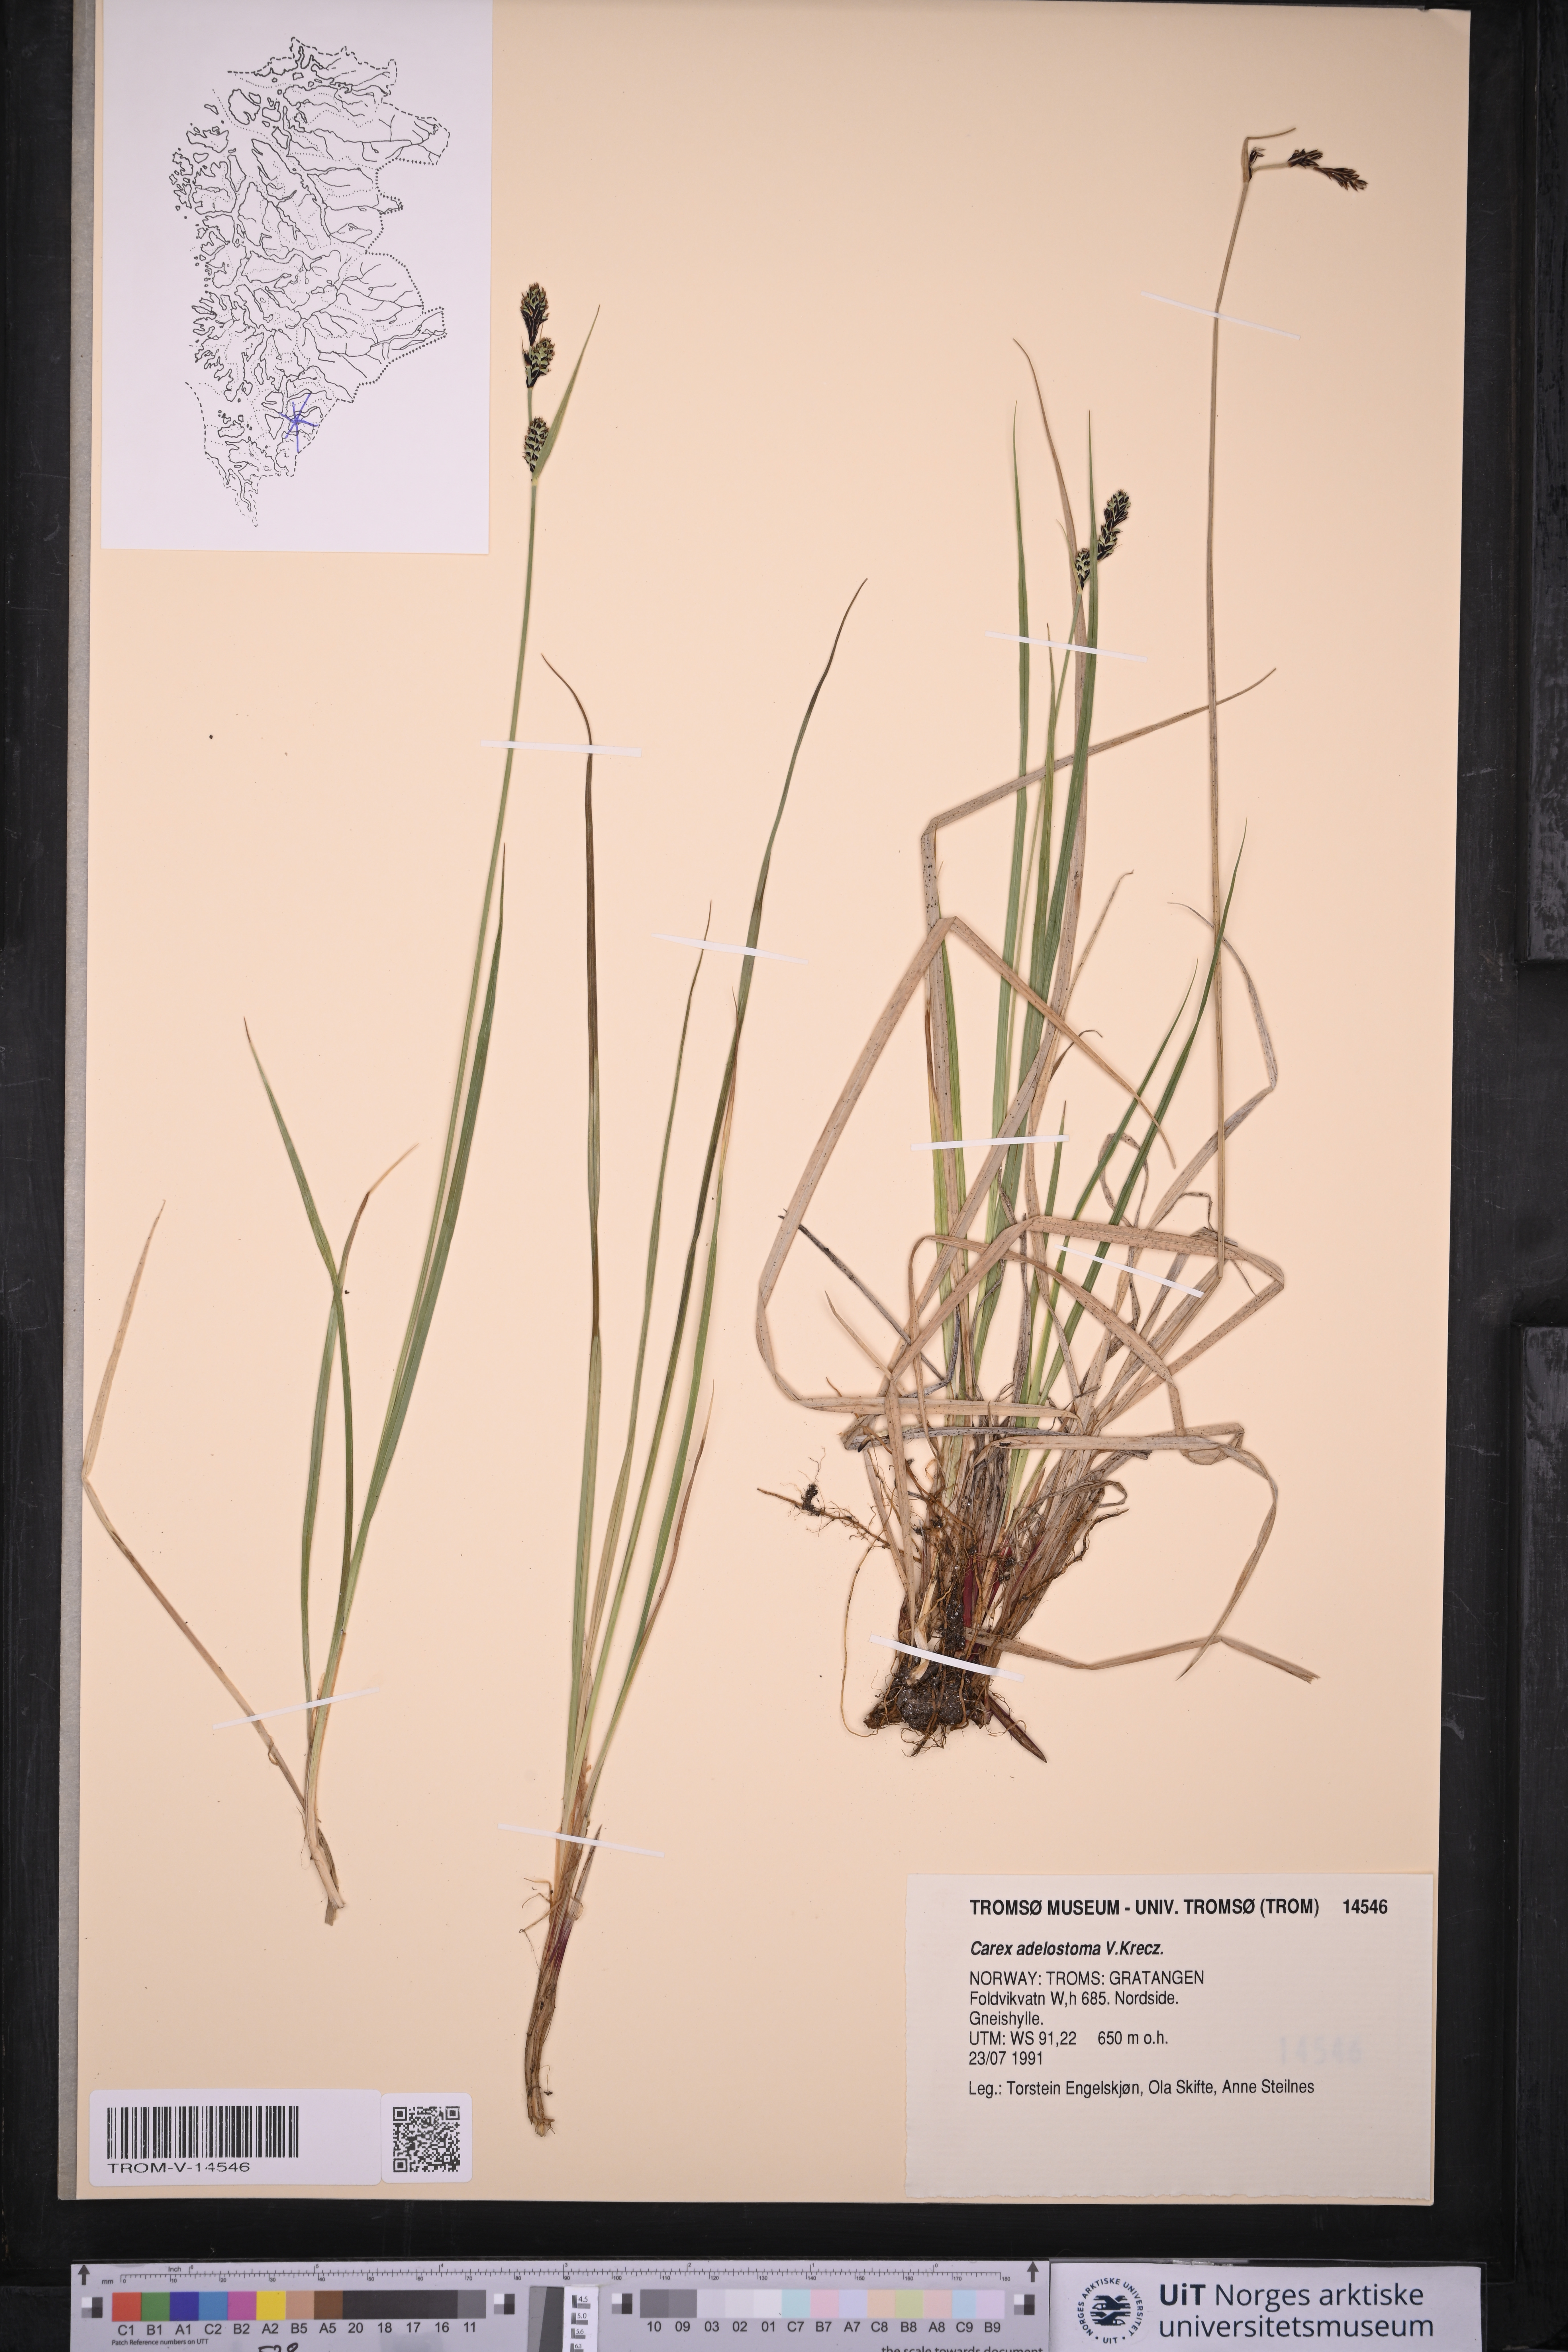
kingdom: Plantae
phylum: Tracheophyta
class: Liliopsida
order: Poales
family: Cyperaceae
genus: Carex
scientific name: Carex adelostoma
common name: Circumpolar sedge
